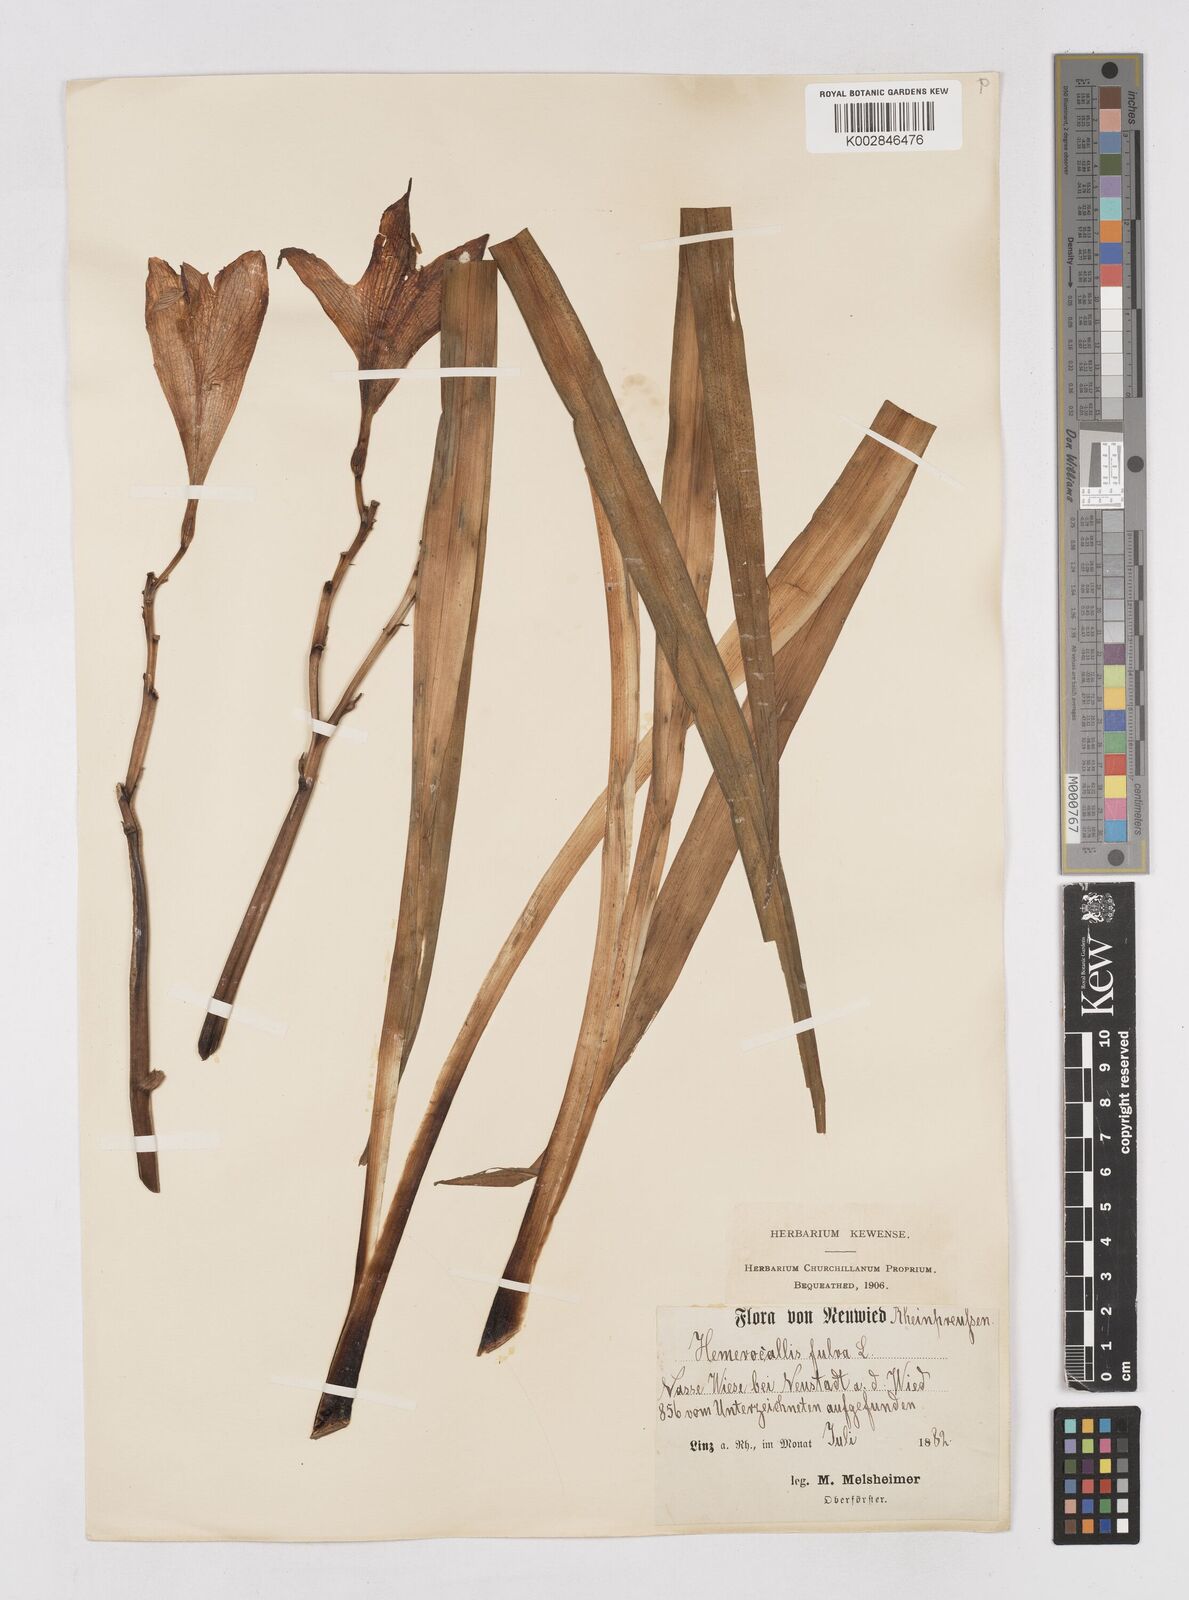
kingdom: Plantae
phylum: Tracheophyta
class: Liliopsida
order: Asparagales
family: Asphodelaceae
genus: Hemerocallis
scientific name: Hemerocallis fulva
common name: Orange day-lily
